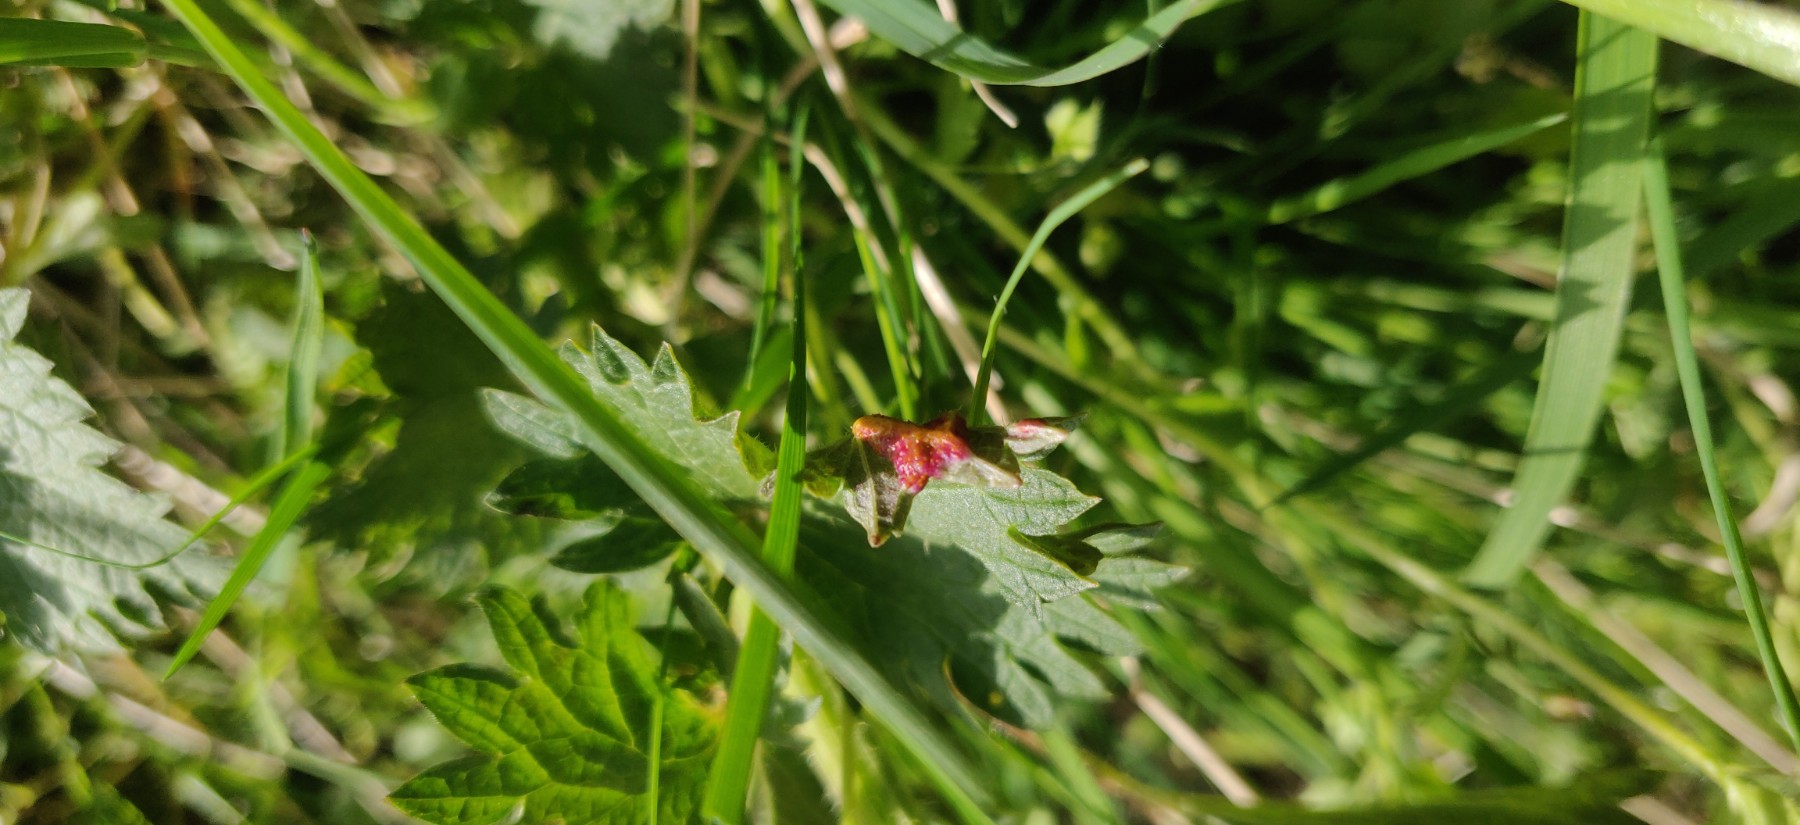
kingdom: Fungi
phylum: Basidiomycota
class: Pucciniomycetes
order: Pucciniales
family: Pucciniaceae
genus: Puccinia
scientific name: Puccinia urticata
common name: nældegalle-tvecellerust
